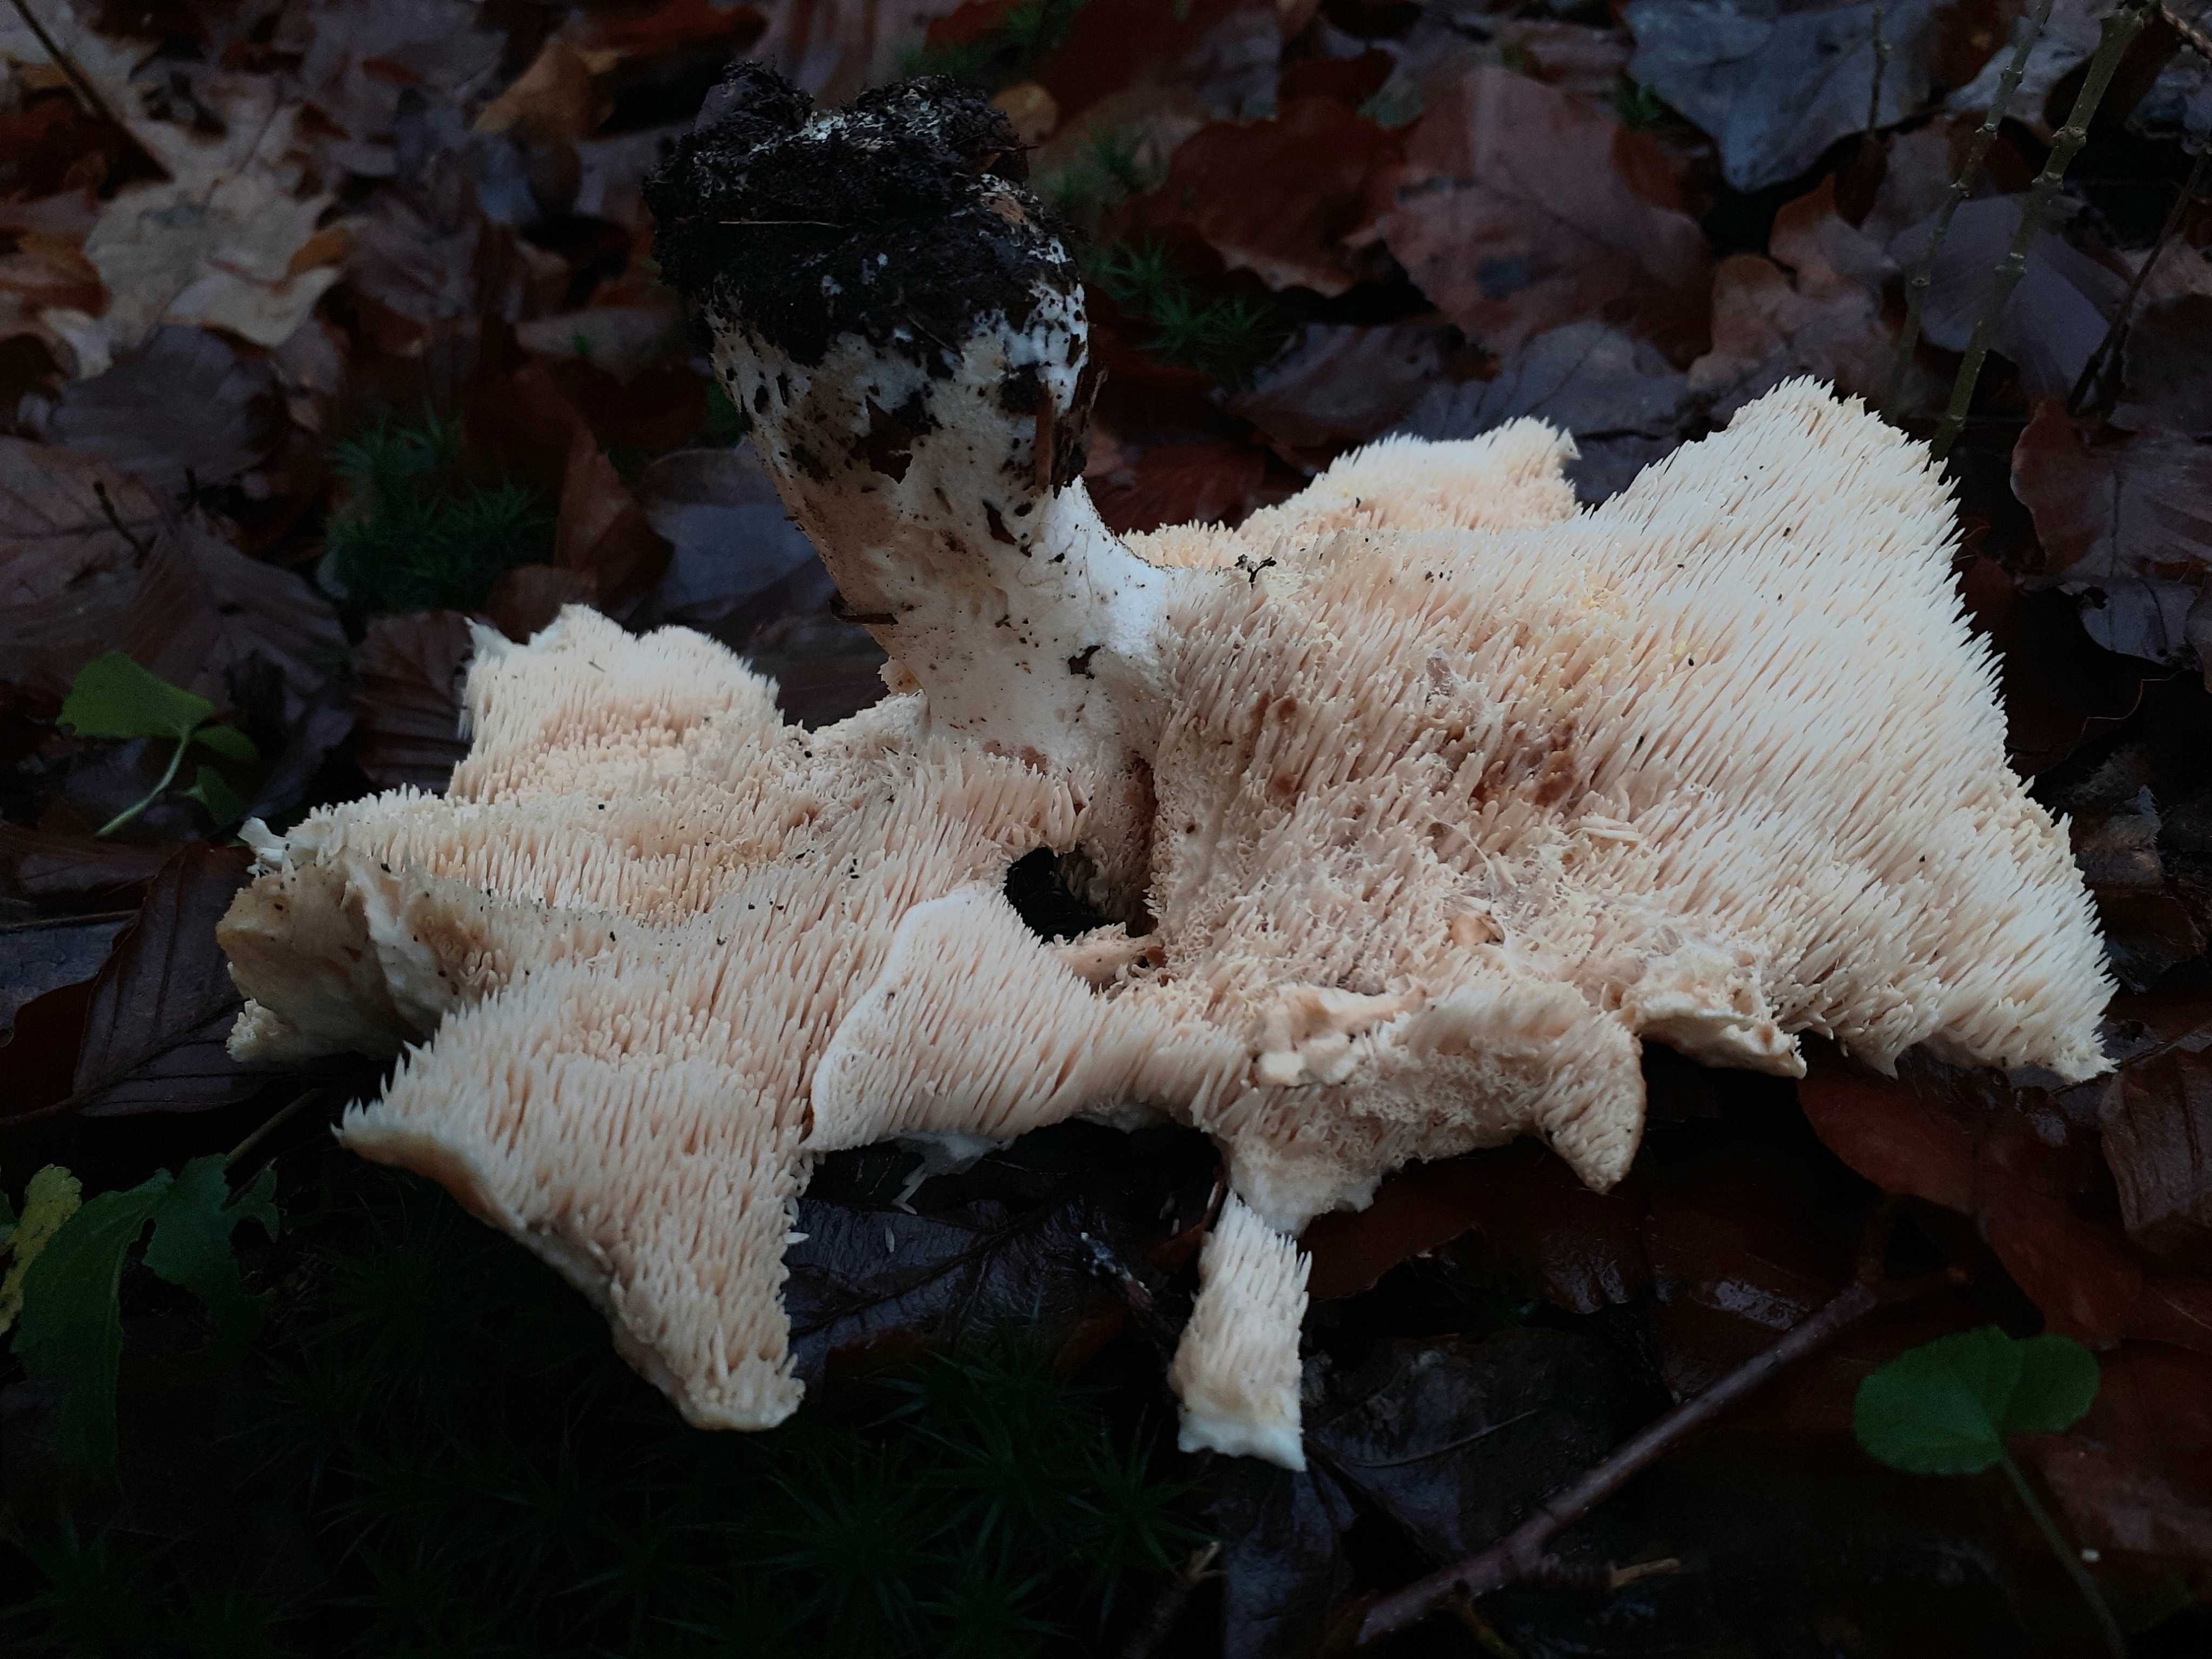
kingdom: Fungi
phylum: Basidiomycota
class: Agaricomycetes
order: Cantharellales
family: Hydnaceae
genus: Hydnum
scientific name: Hydnum repandum
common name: almindelig pigsvamp
